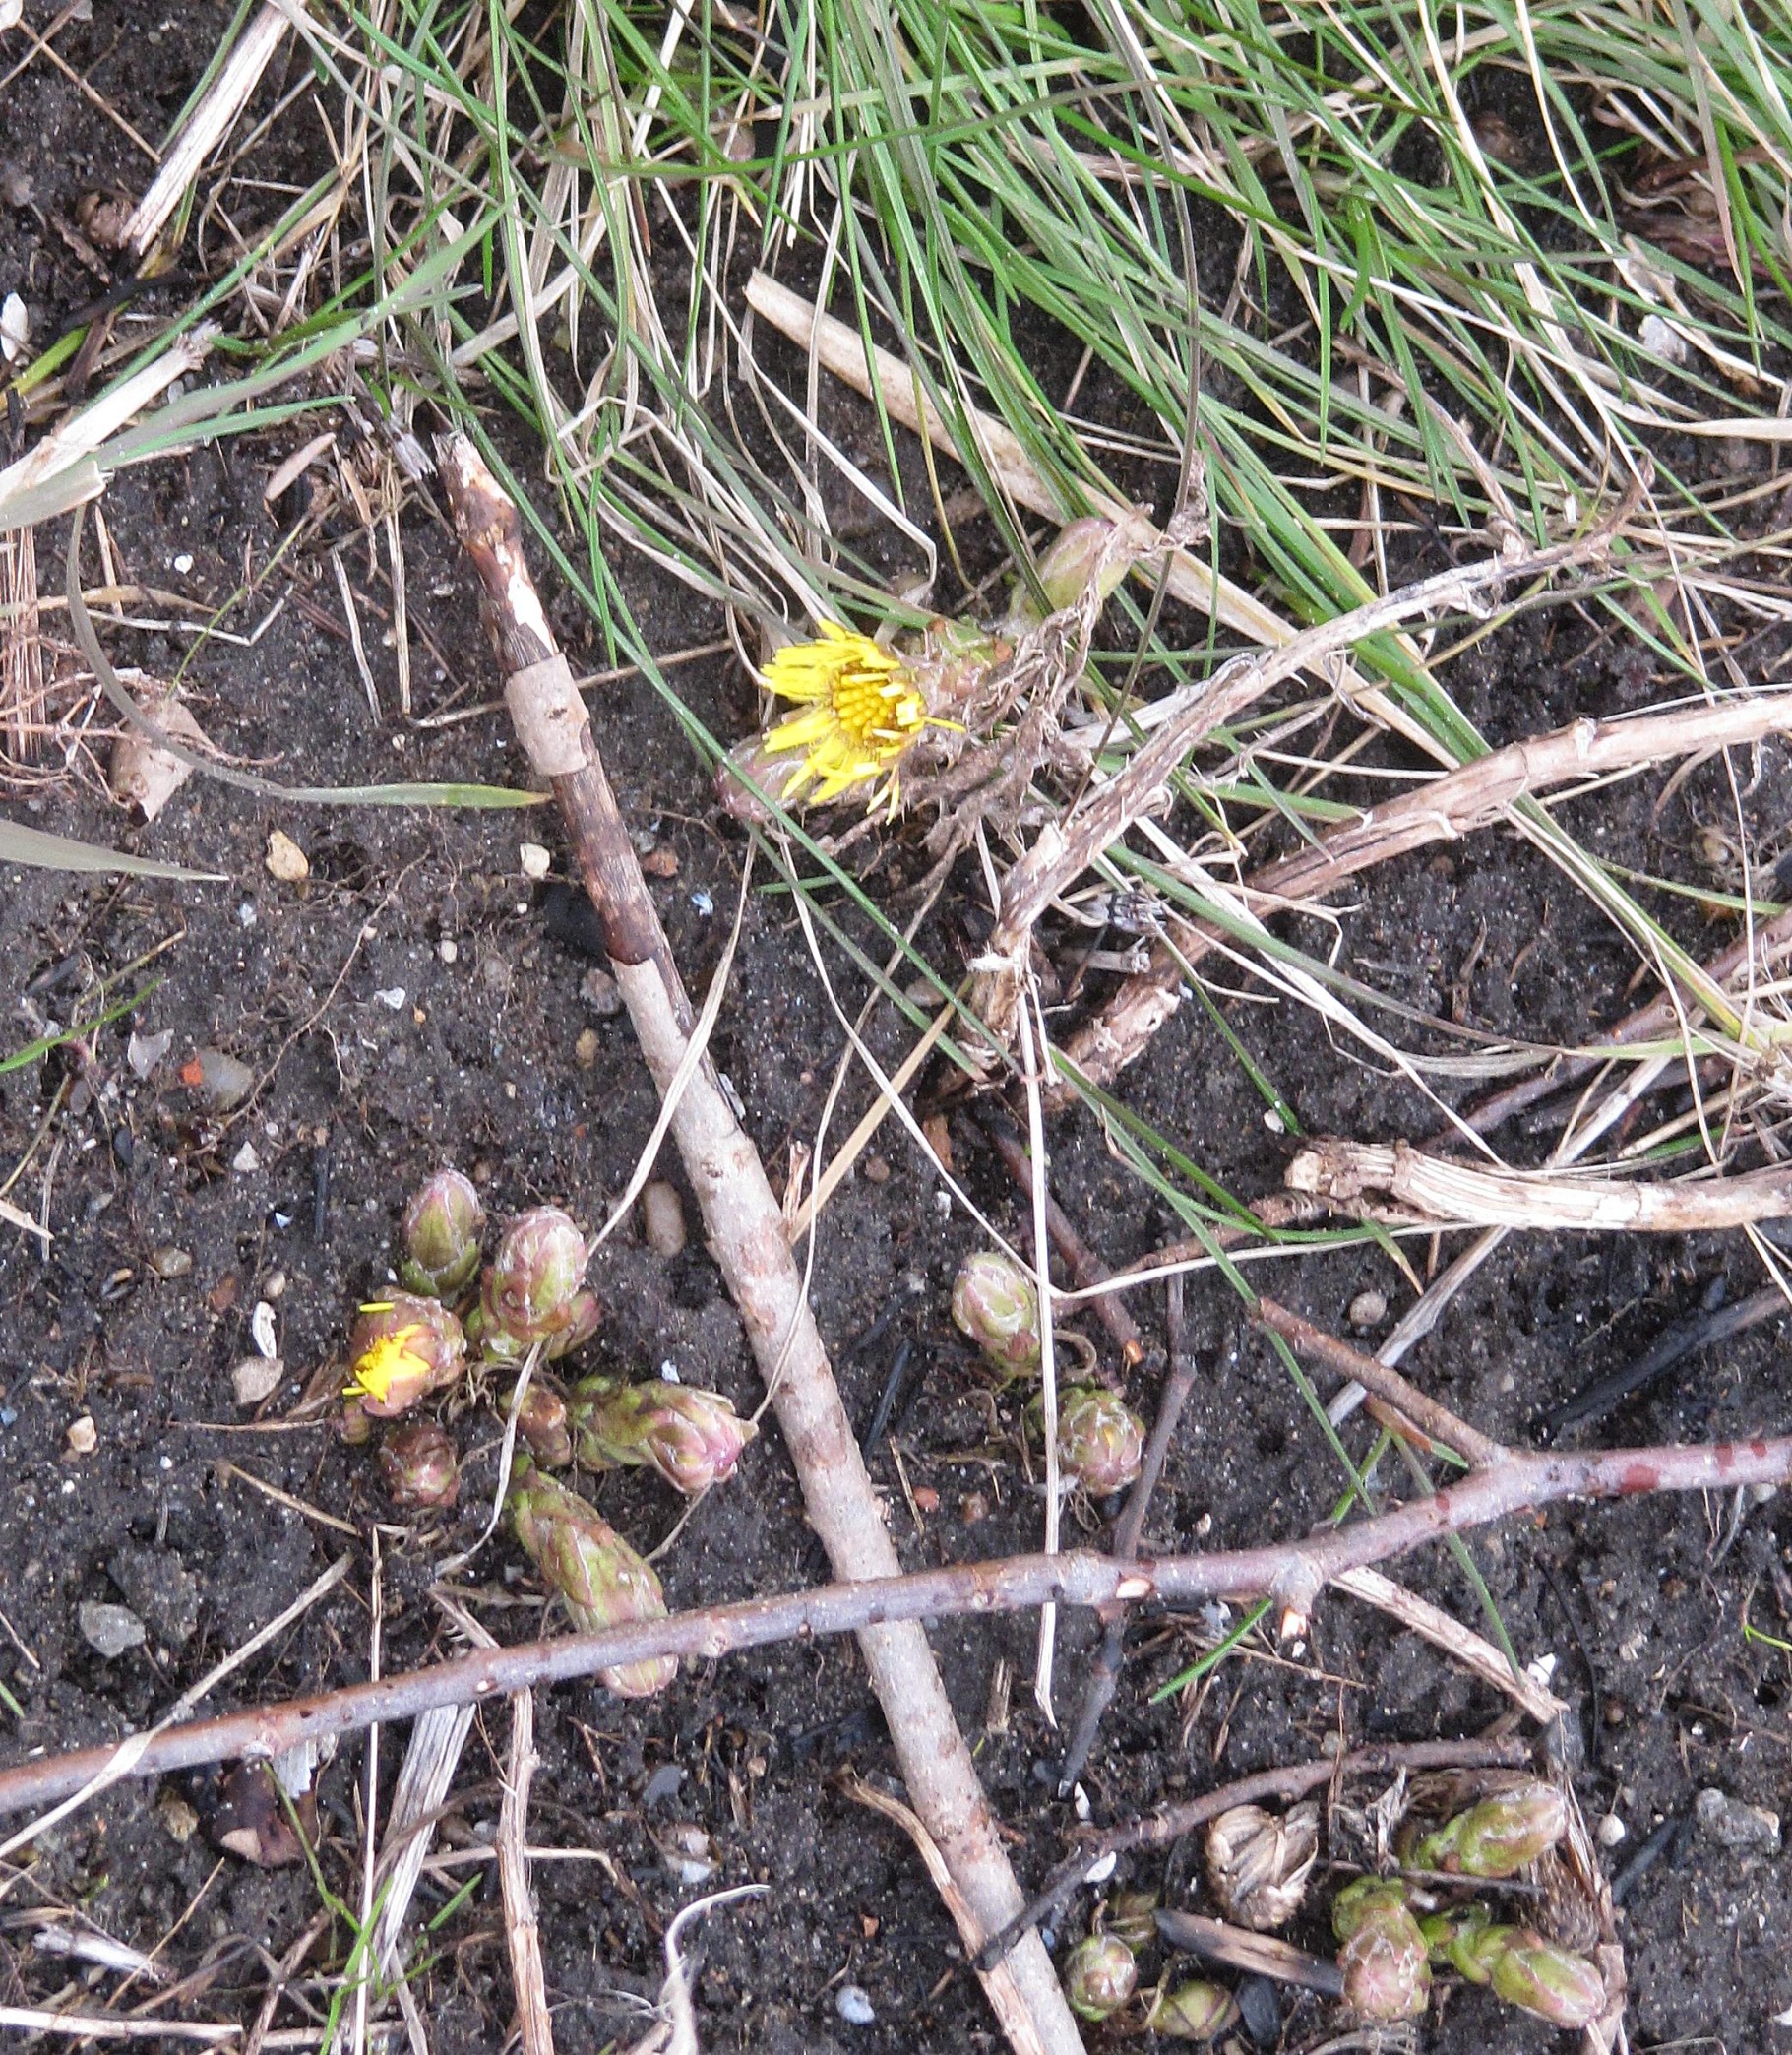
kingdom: Plantae
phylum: Tracheophyta
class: Magnoliopsida
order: Asterales
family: Asteraceae
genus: Tussilago
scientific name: Tussilago farfara
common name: Følfod
